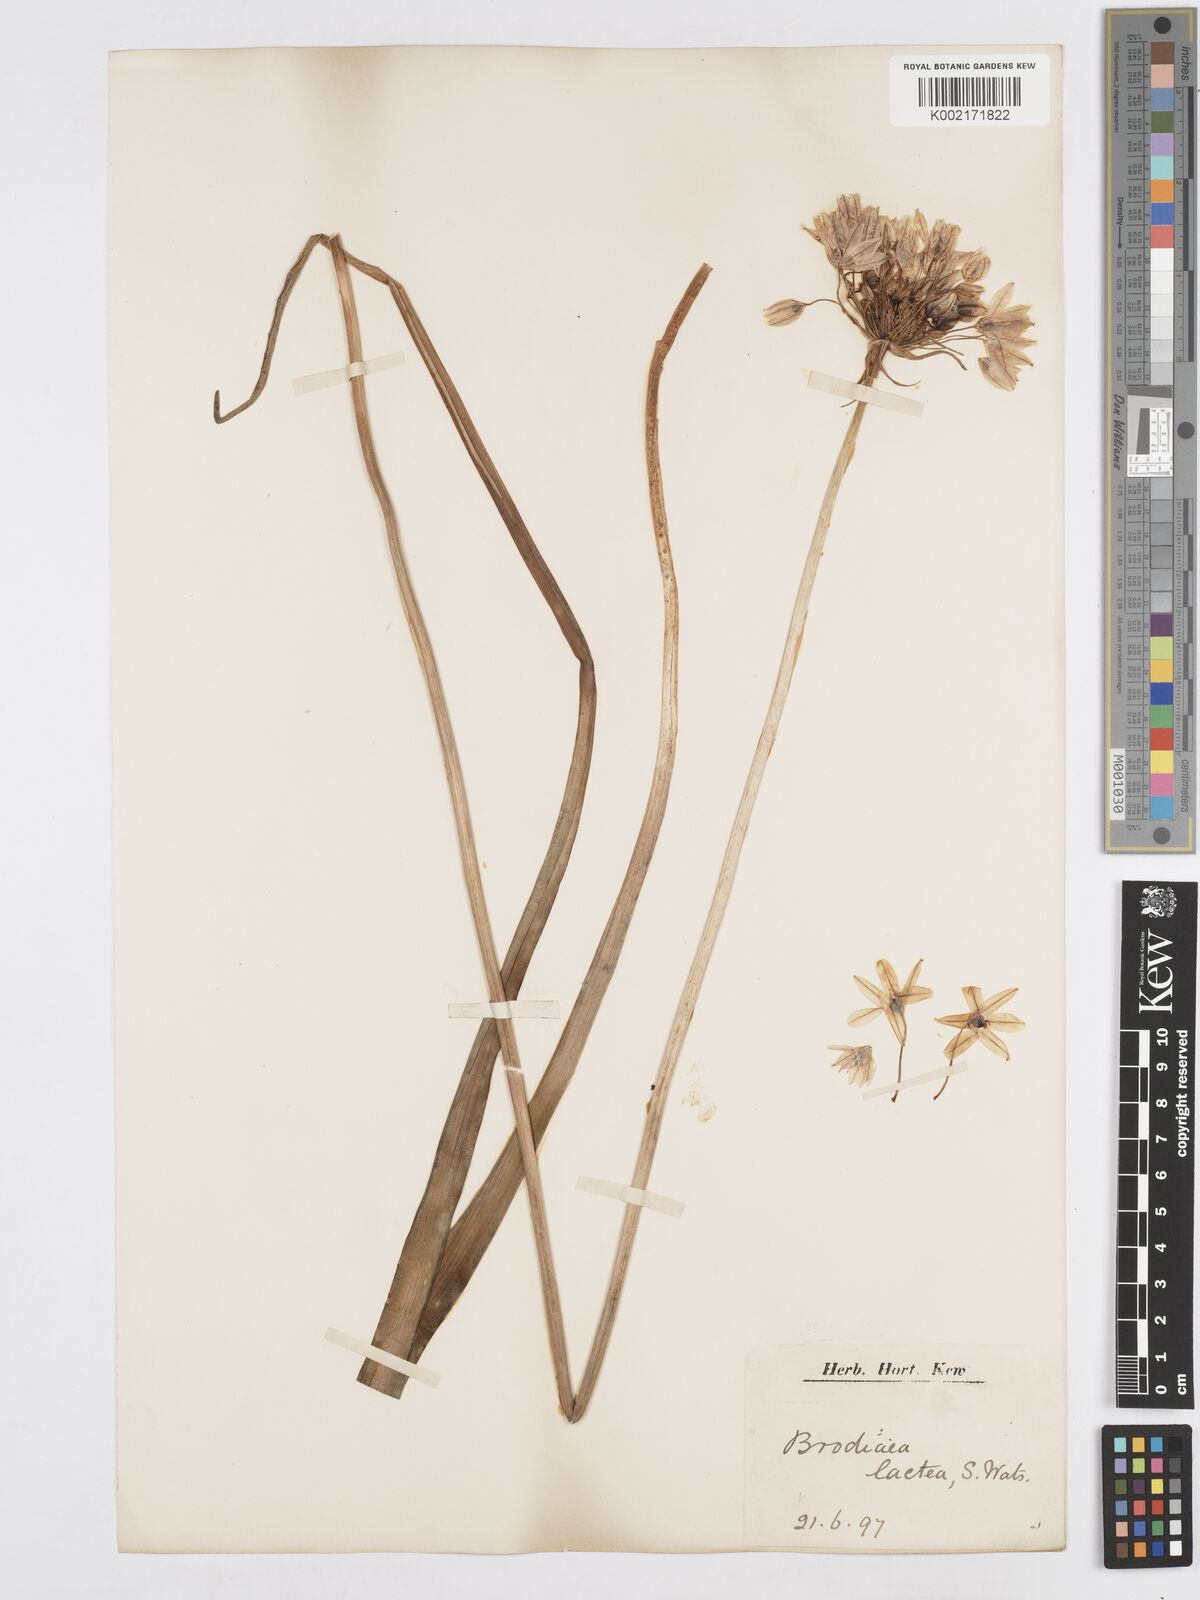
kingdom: Plantae
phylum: Tracheophyta
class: Liliopsida
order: Asparagales
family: Asparagaceae
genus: Triteleia
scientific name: Triteleia hyacinthina
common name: White brodiaea
